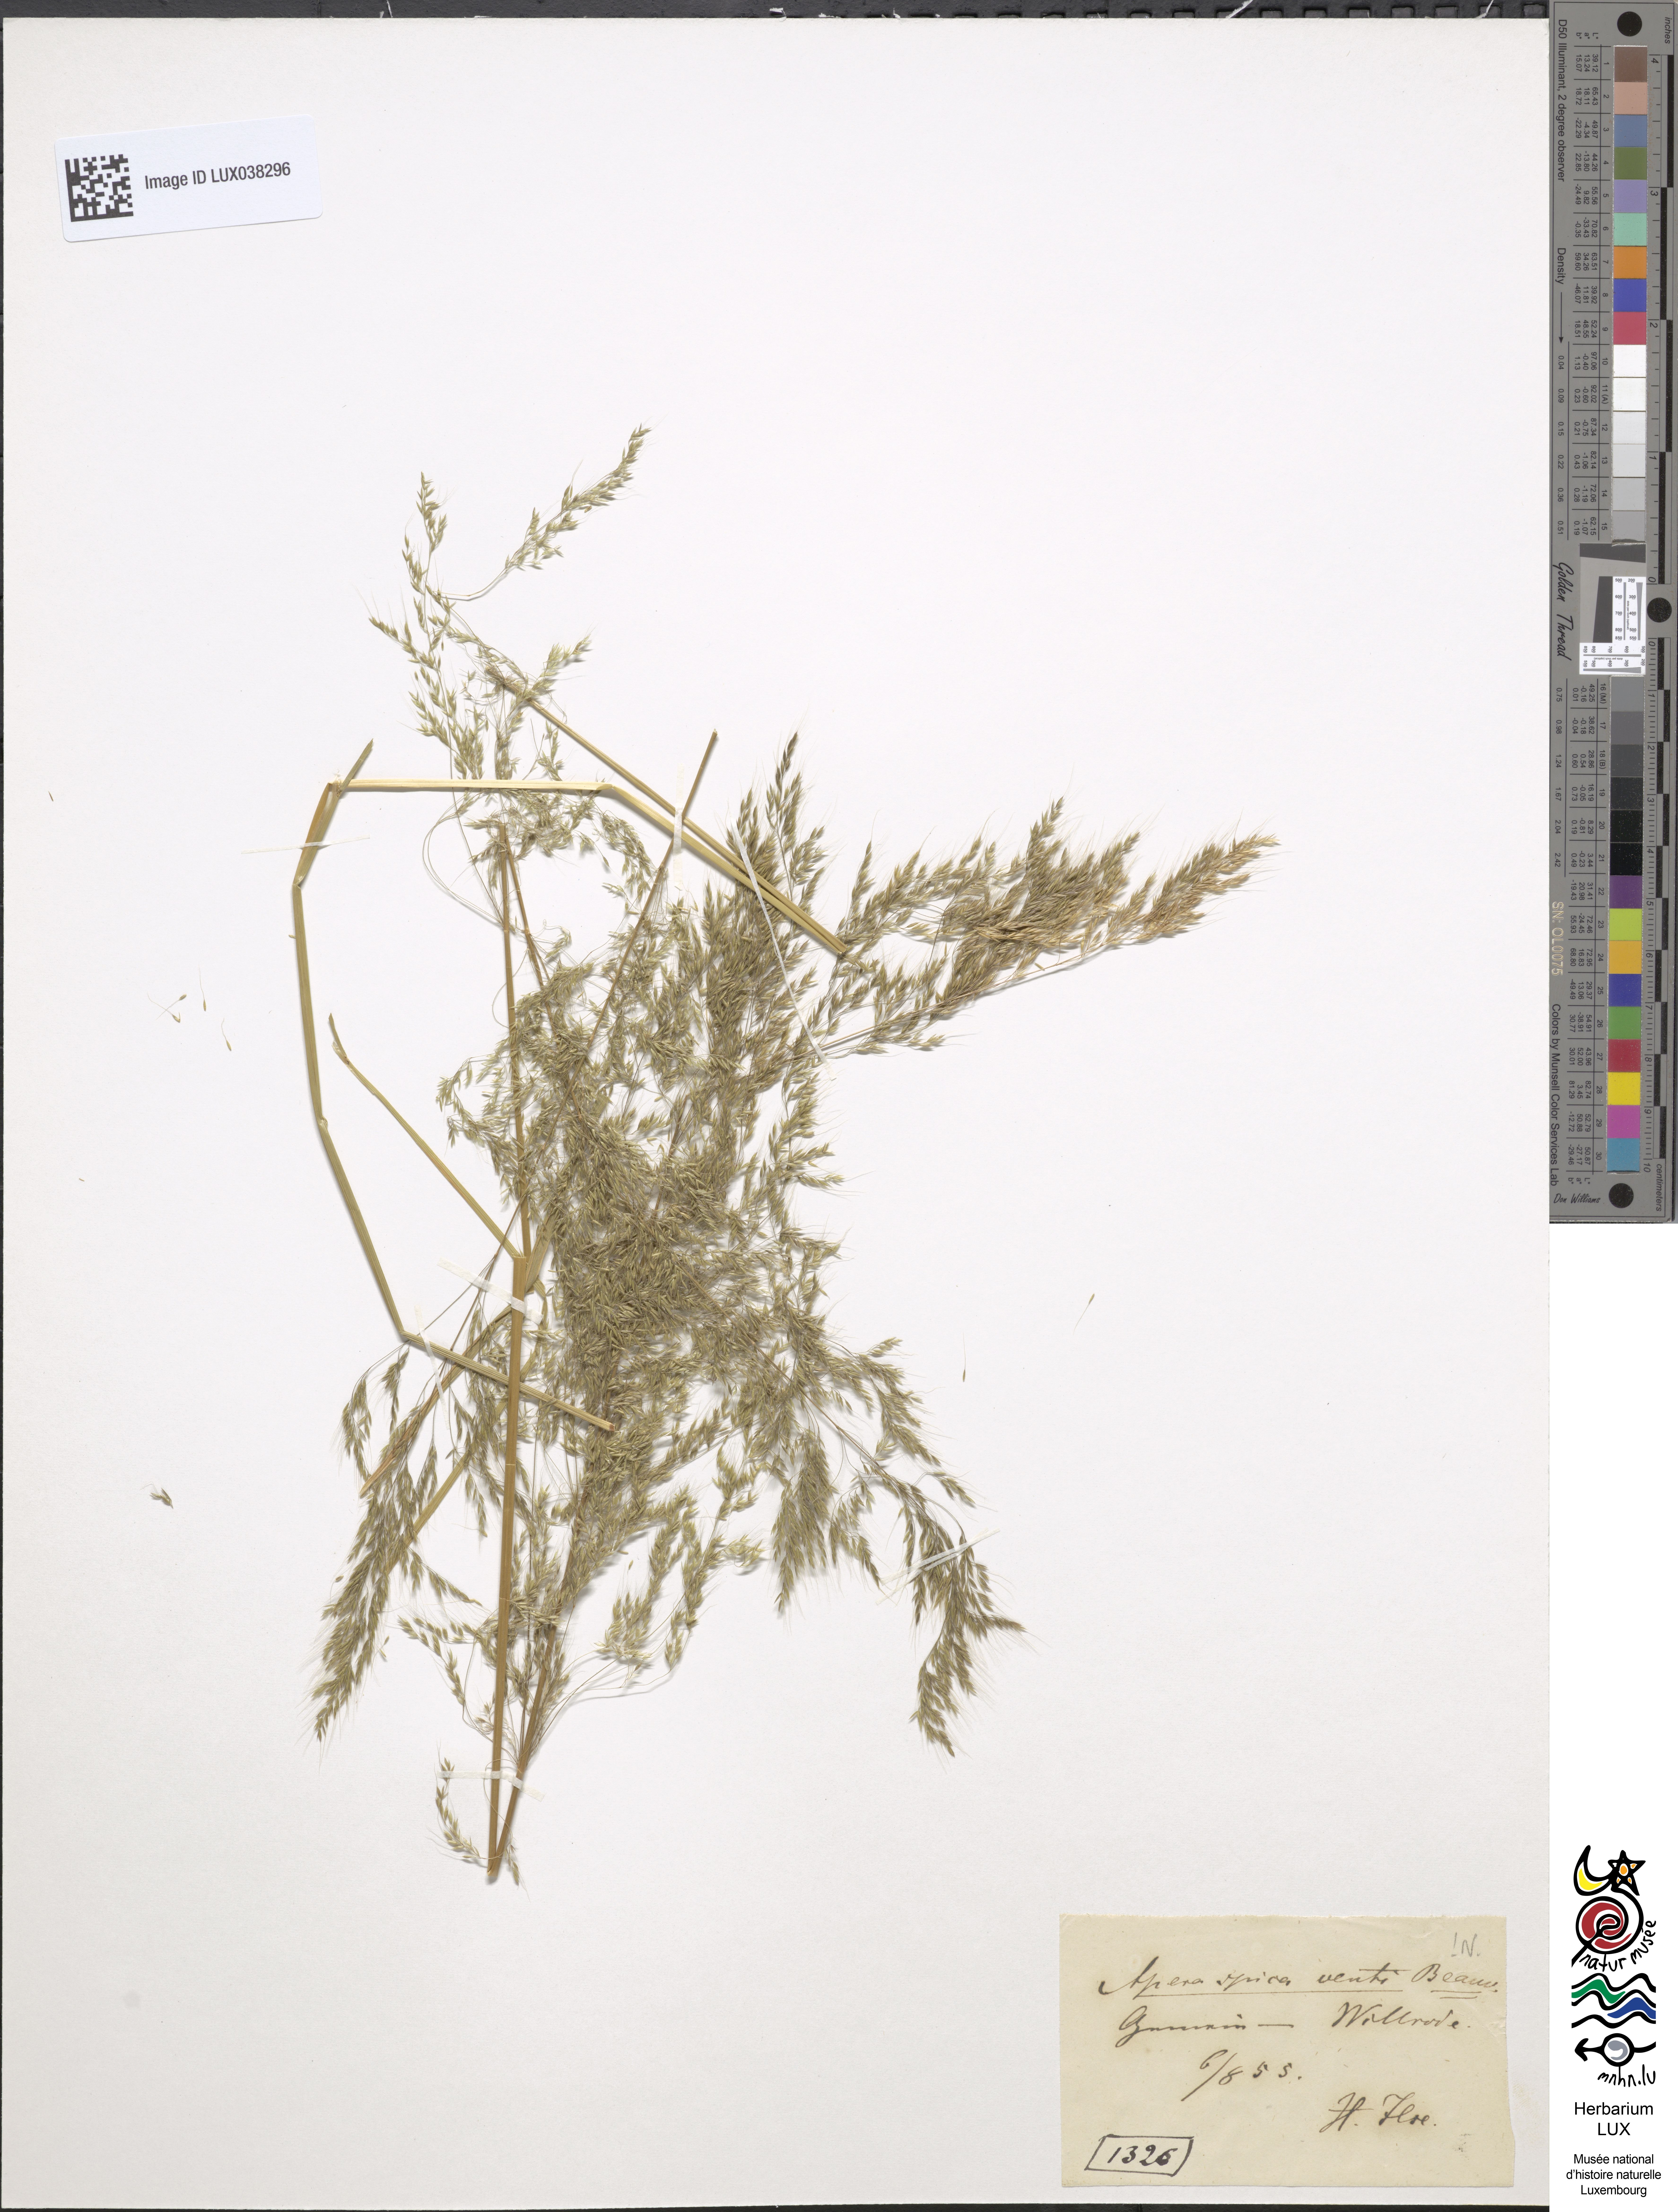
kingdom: Plantae
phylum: Tracheophyta
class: Liliopsida
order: Poales
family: Poaceae
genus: Apera
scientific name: Apera spica-venti
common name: Loose silky-bent
